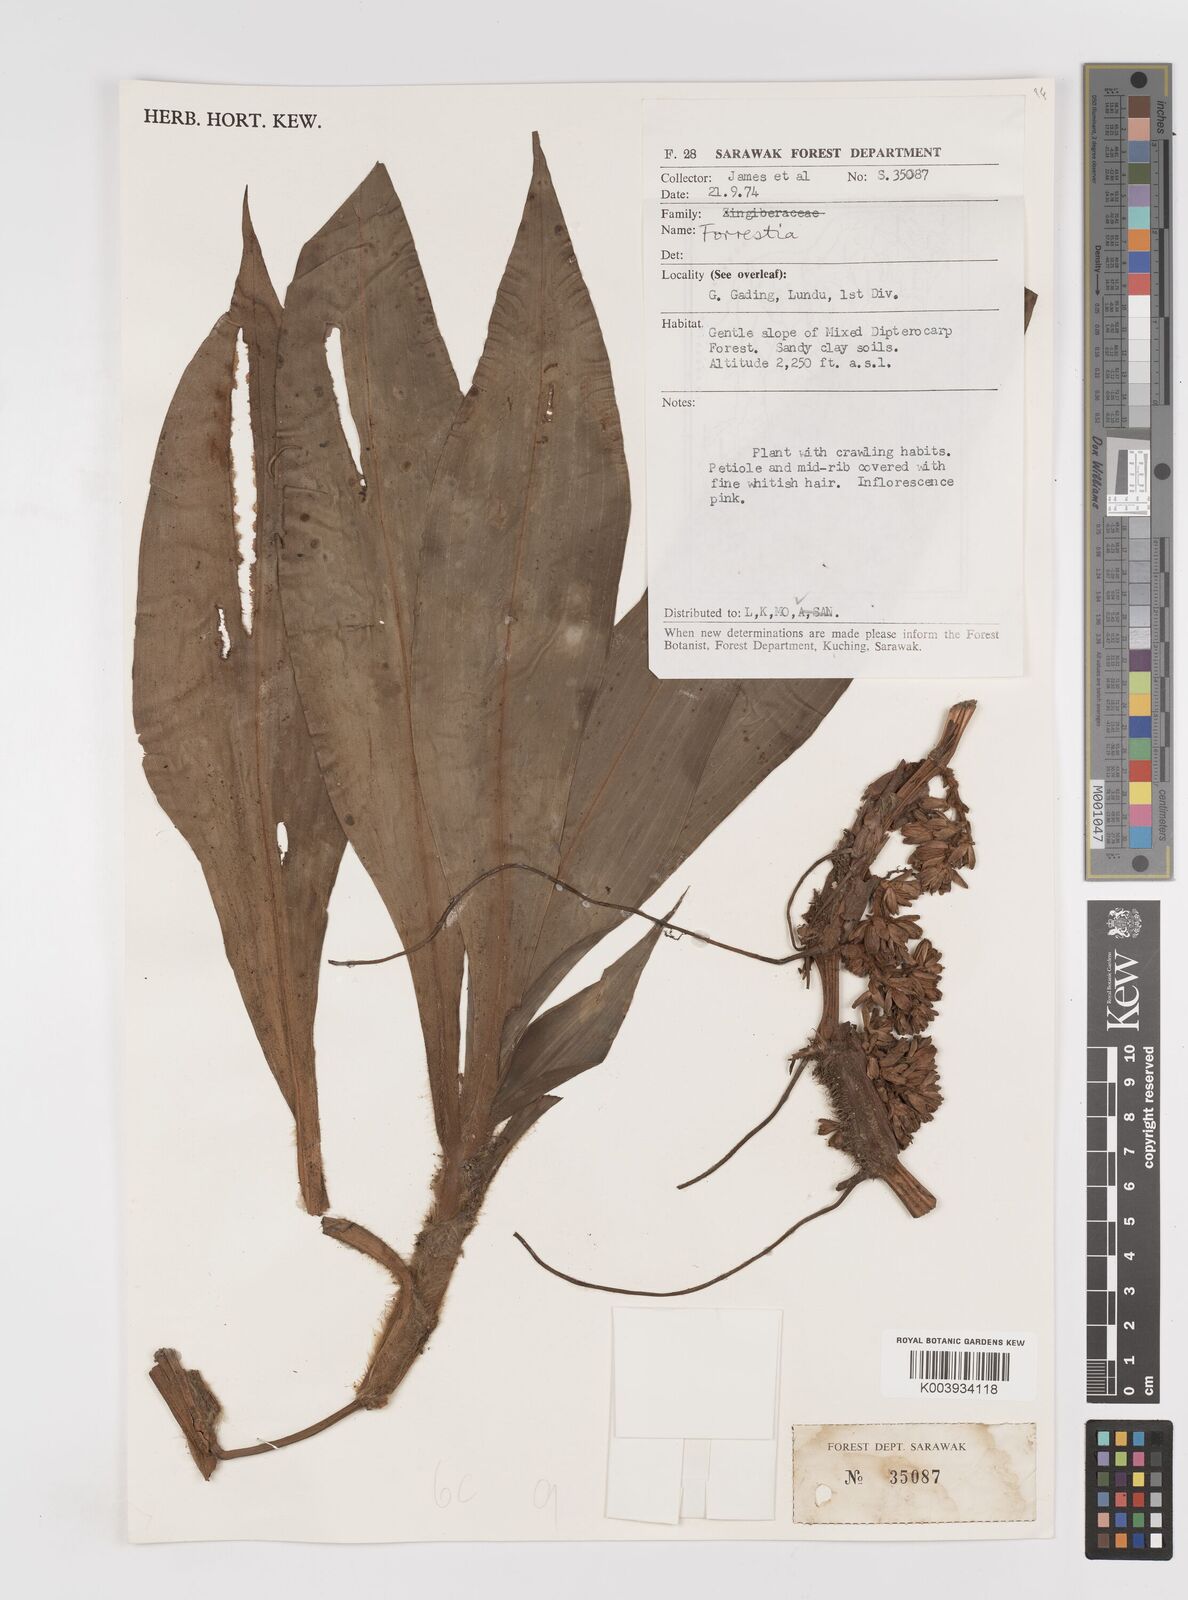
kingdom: Plantae
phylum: Tracheophyta
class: Liliopsida
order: Commelinales
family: Commelinaceae
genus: Amischotolype
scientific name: Amischotolype
